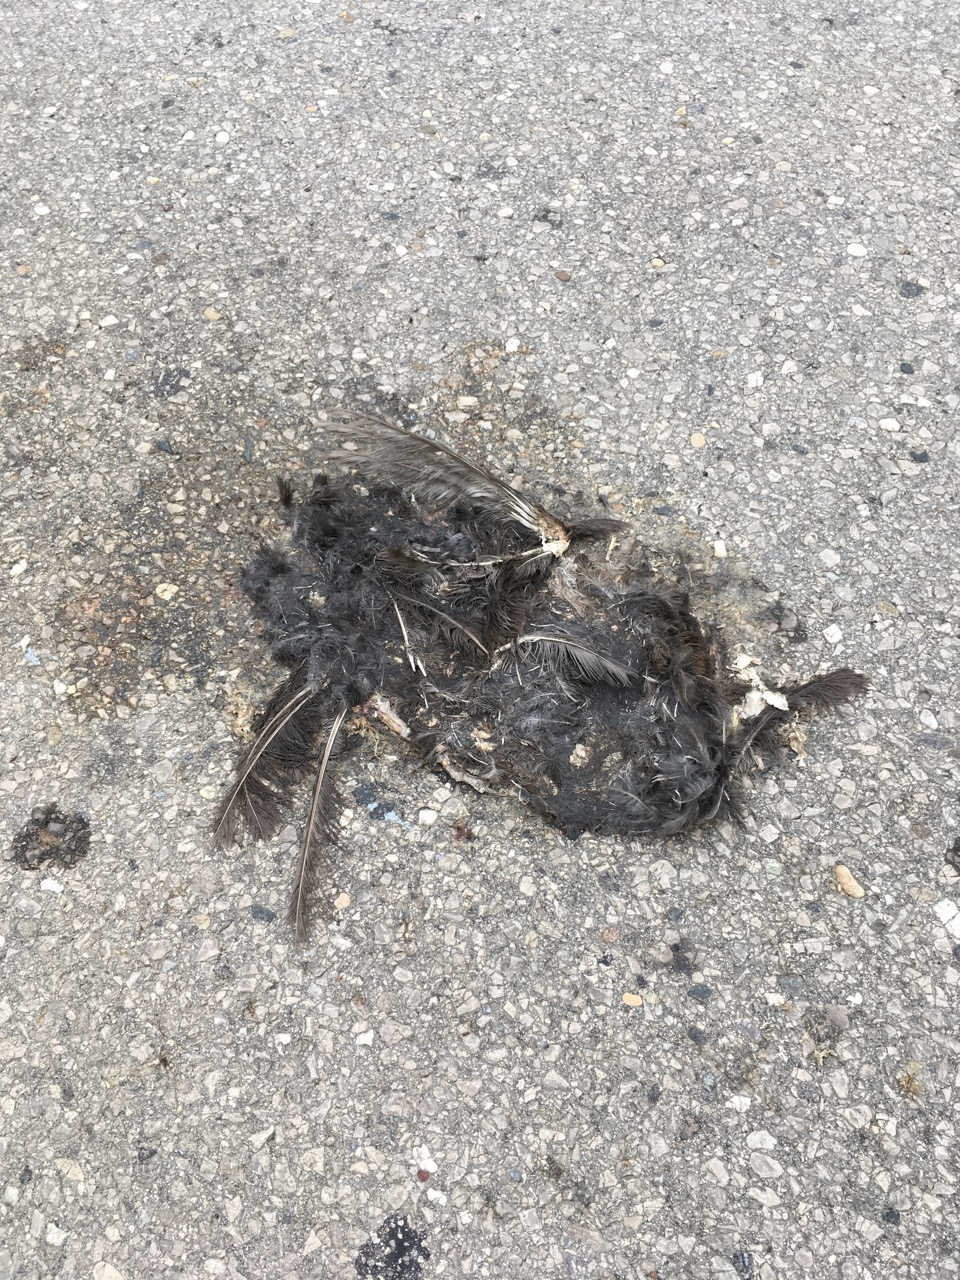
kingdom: Animalia
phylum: Chordata
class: Aves
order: Passeriformes
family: Turdidae
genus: Turdus
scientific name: Turdus merula
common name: Common blackbird
